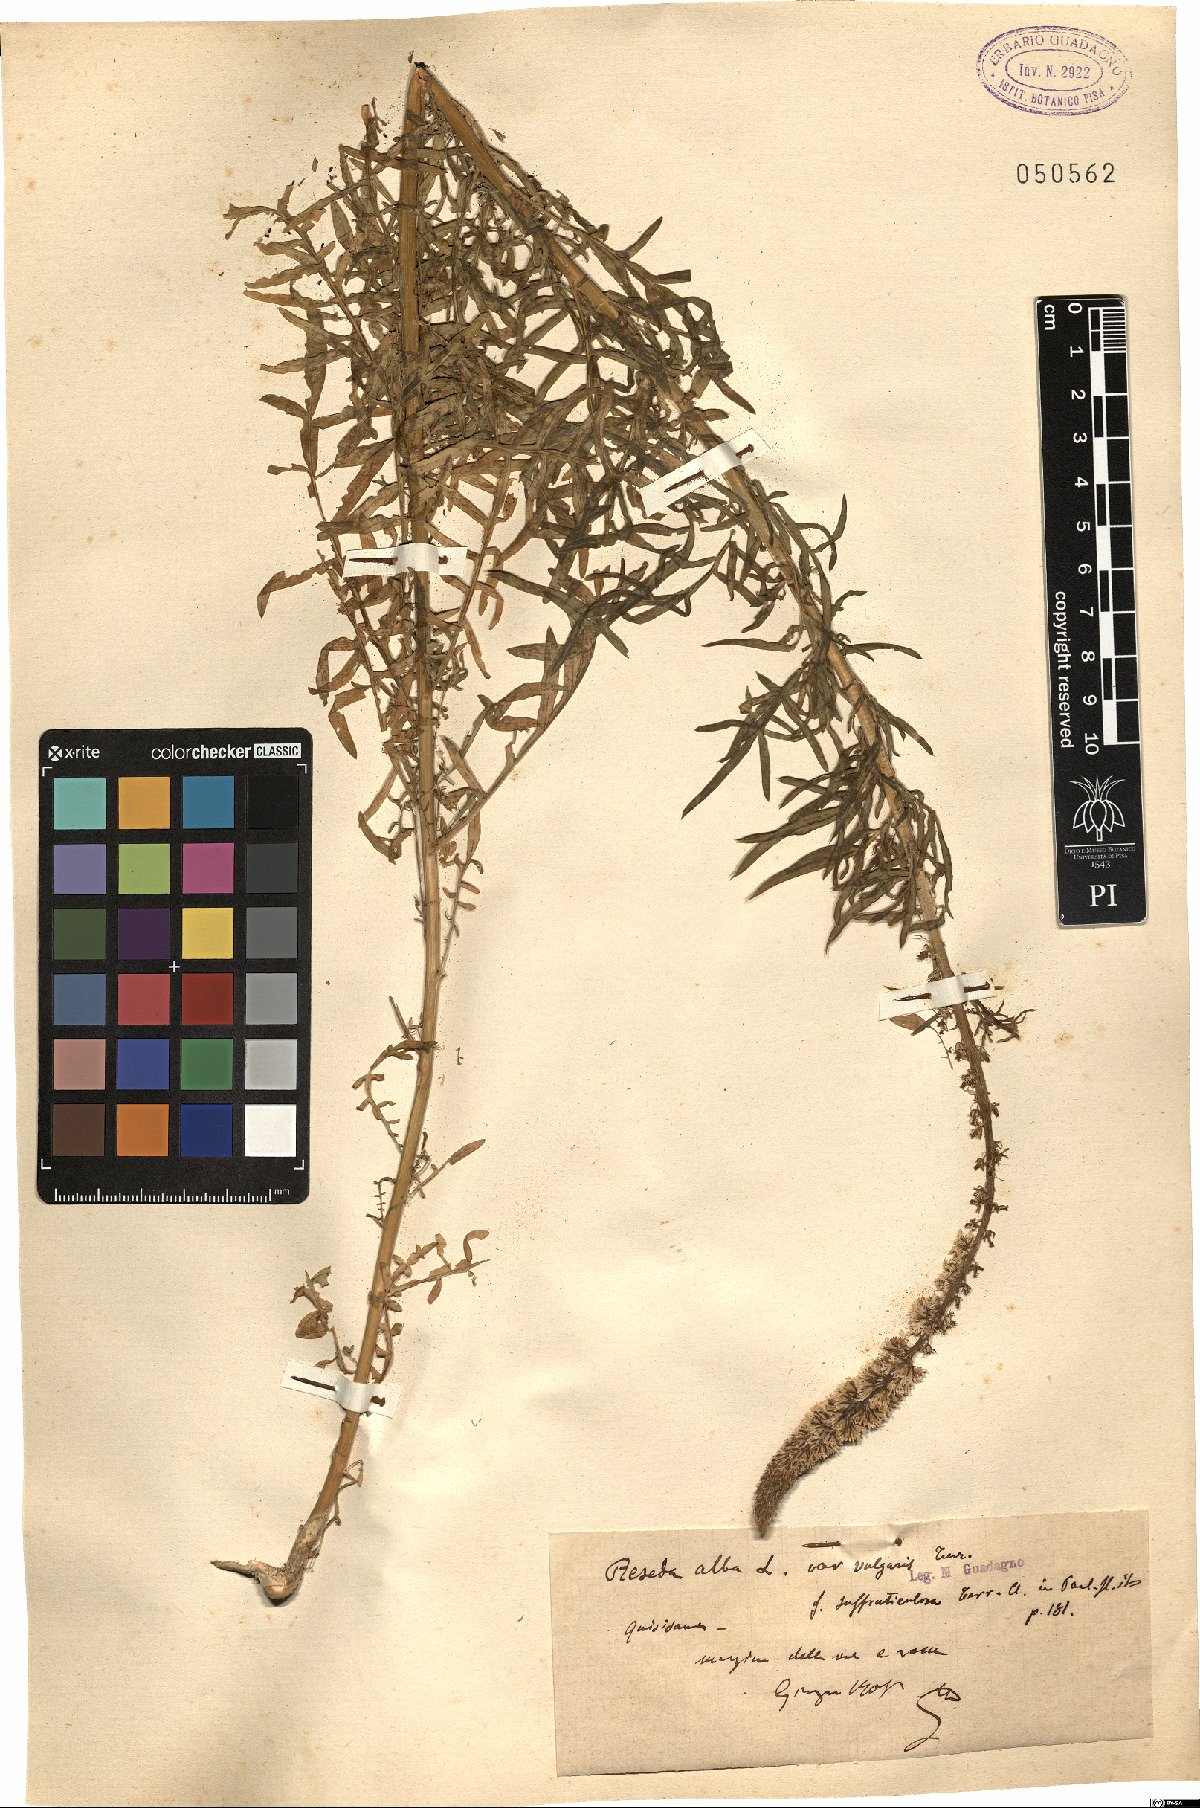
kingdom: Plantae
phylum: Tracheophyta
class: Magnoliopsida
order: Brassicales
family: Resedaceae
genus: Reseda
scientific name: Reseda alba
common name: White mignonette
